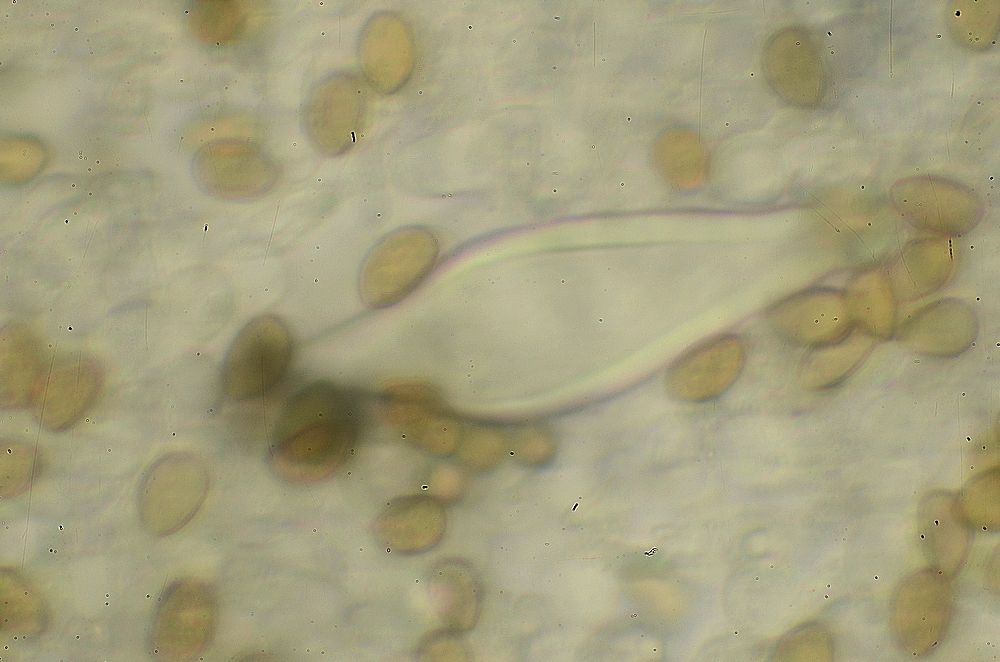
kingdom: Fungi
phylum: Basidiomycota
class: Agaricomycetes
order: Agaricales
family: Inocybaceae
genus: Inocybe
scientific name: Inocybe
